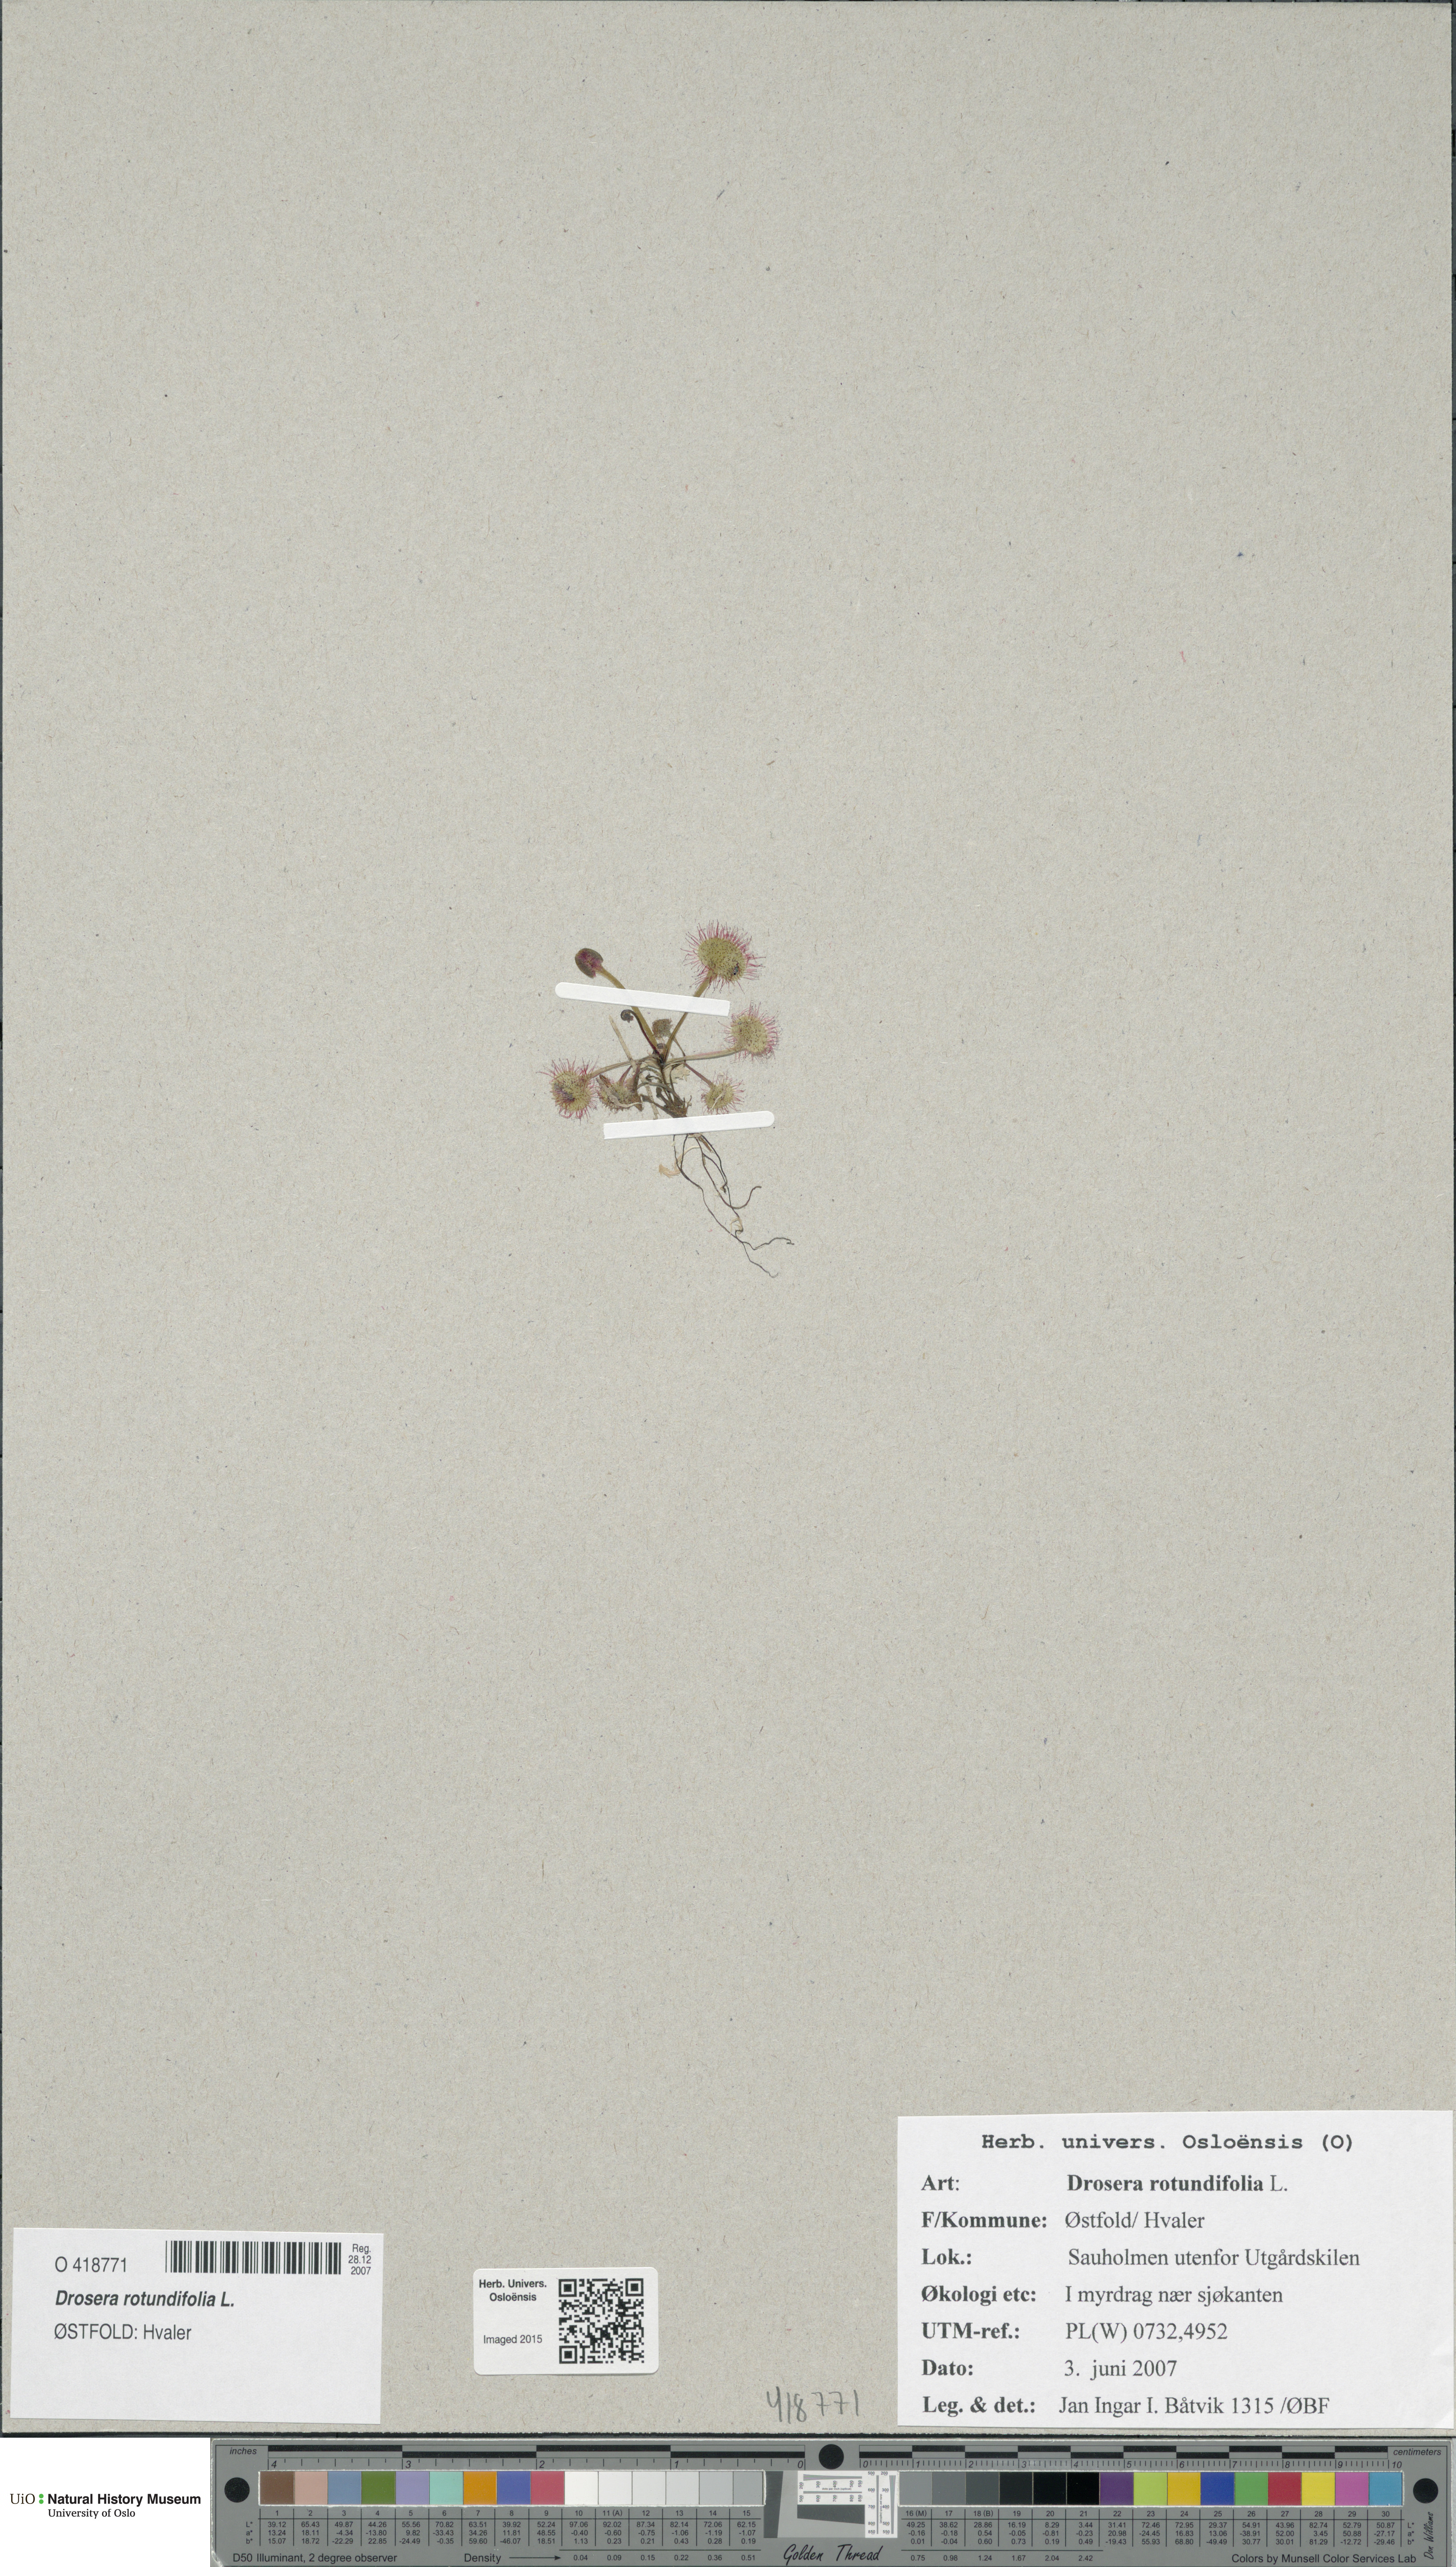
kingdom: Plantae
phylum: Tracheophyta
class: Magnoliopsida
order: Caryophyllales
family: Droseraceae
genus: Drosera
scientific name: Drosera rotundifolia
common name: Round-leaved sundew
